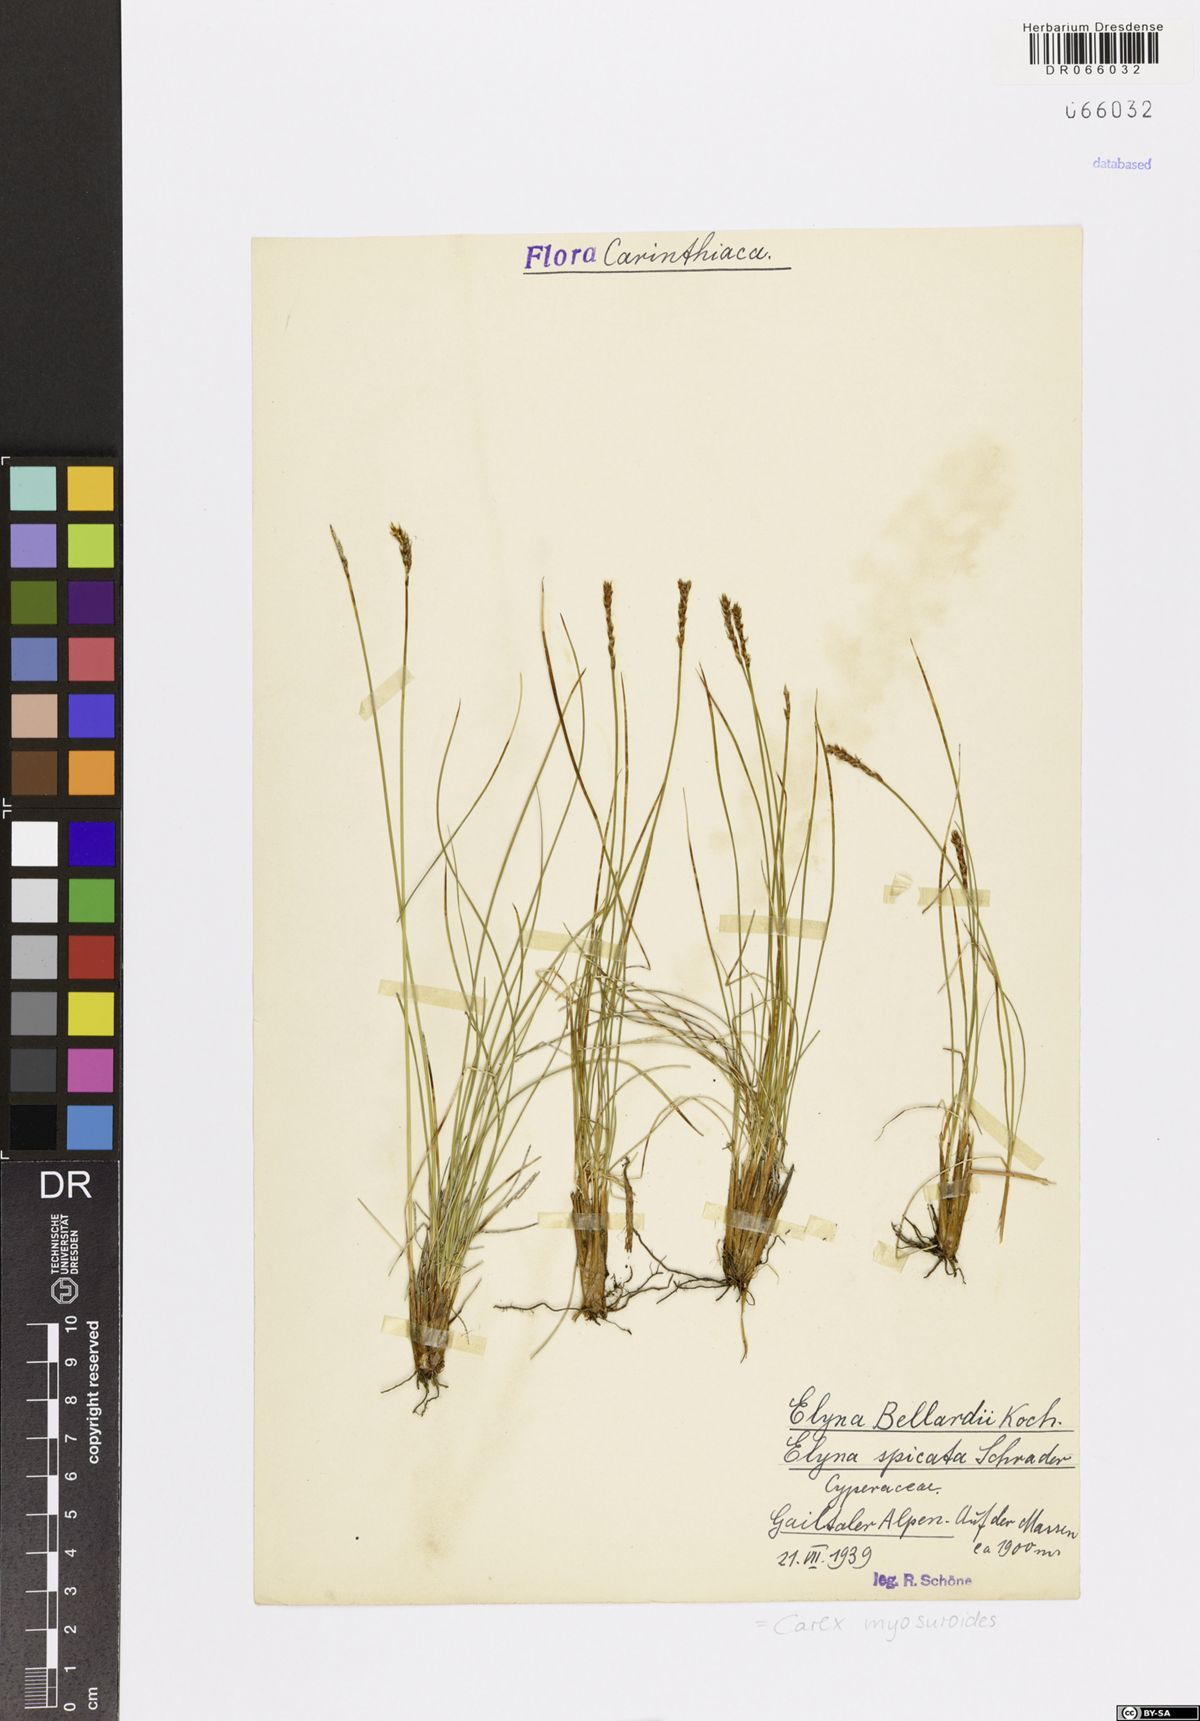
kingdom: Plantae
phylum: Tracheophyta
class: Liliopsida
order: Poales
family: Cyperaceae
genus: Carex
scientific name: Carex myosuroides
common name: Bellard's bog sedge
